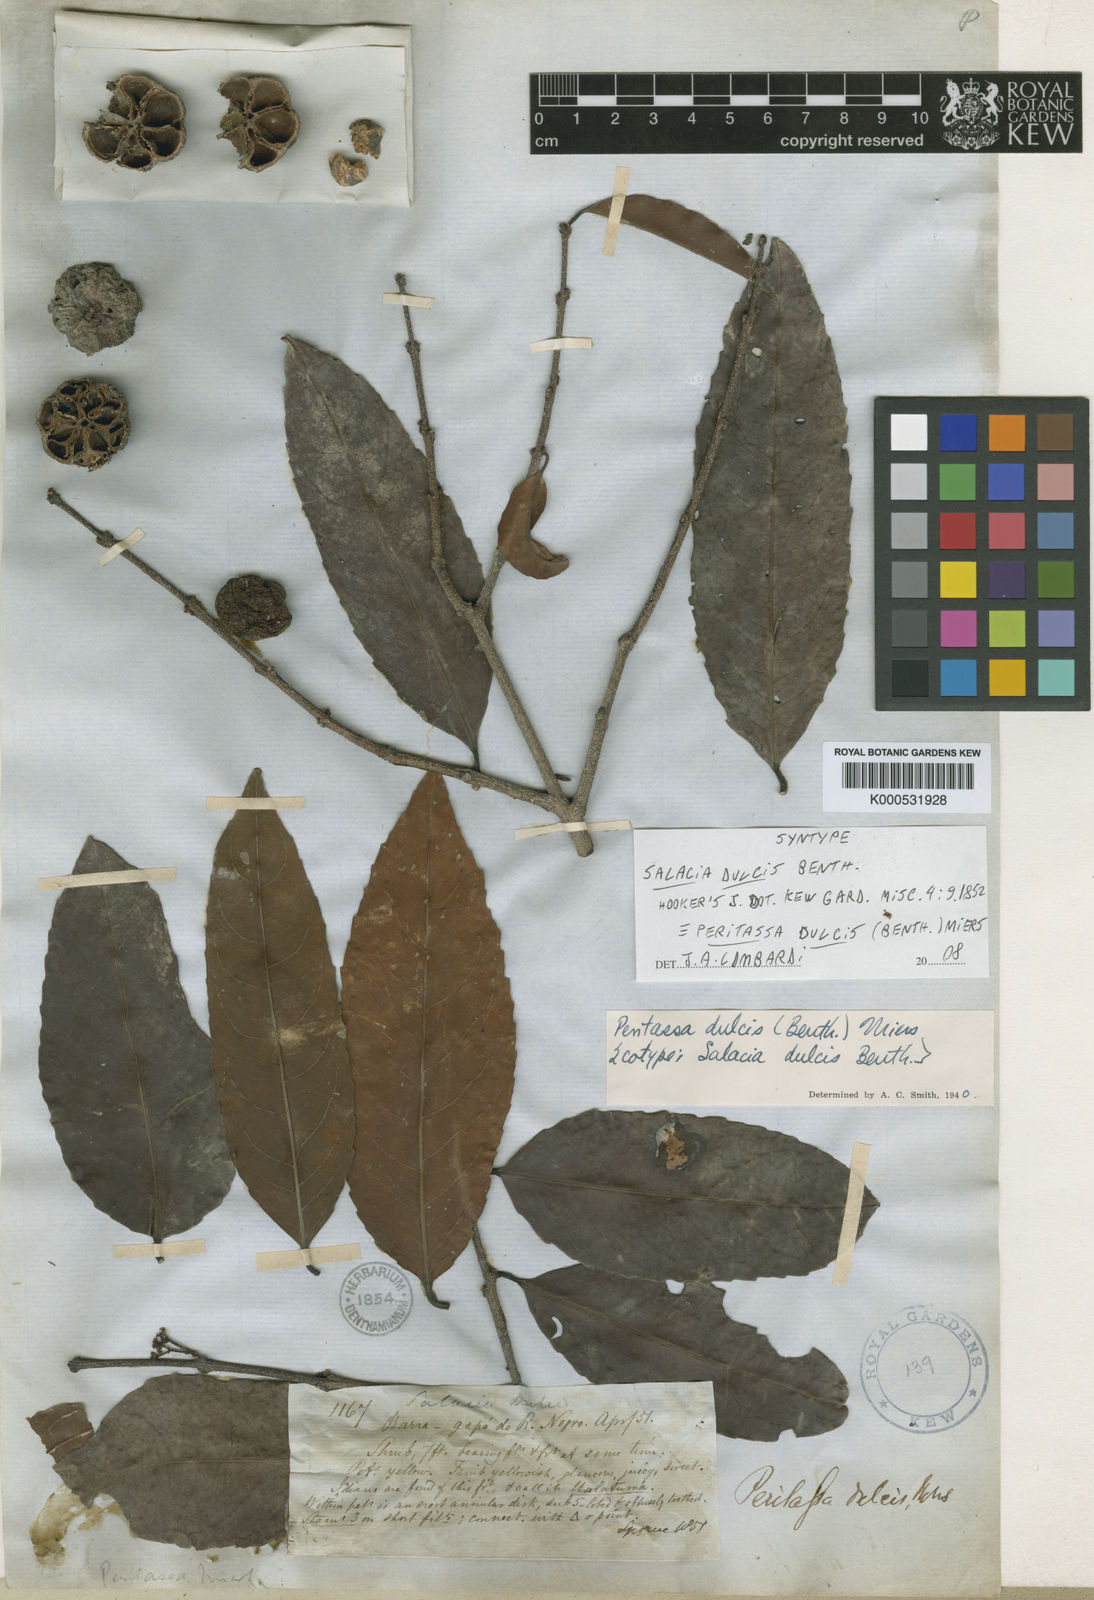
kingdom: Plantae
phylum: Tracheophyta
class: Magnoliopsida
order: Celastrales
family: Celastraceae
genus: Peritassa
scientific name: Peritassa dulcis
